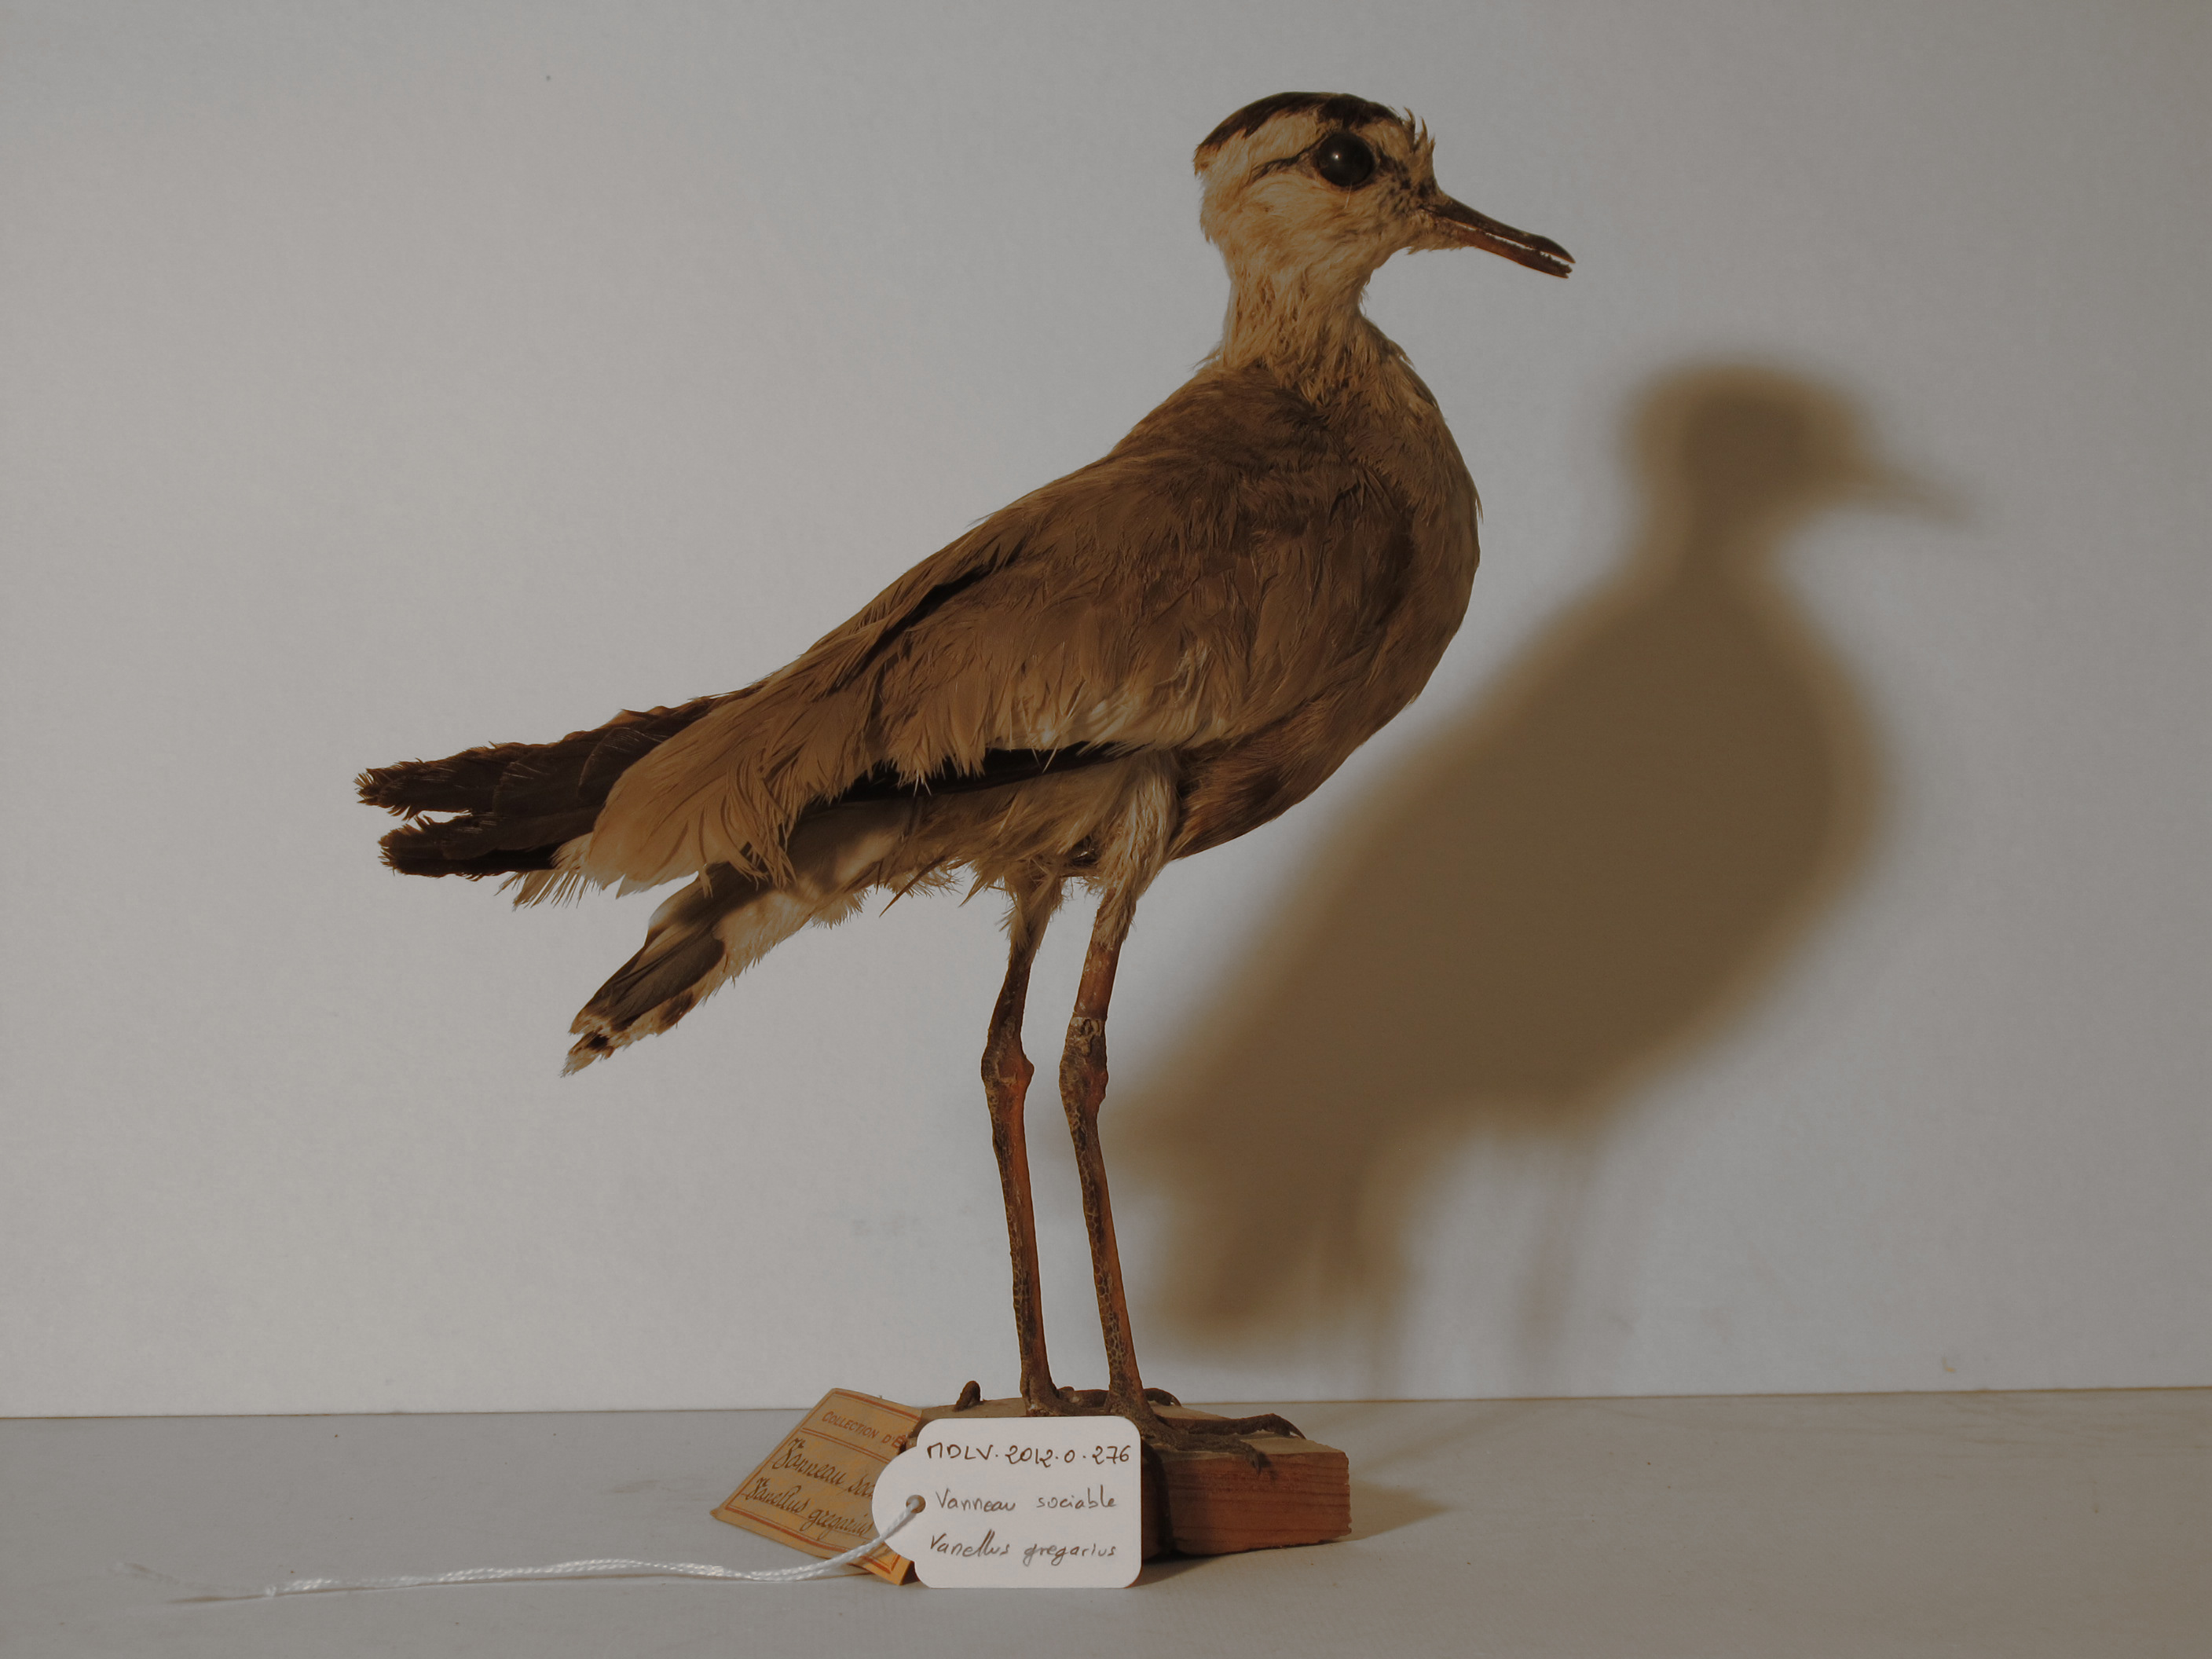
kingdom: Animalia
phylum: Chordata
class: Aves
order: Charadriiformes
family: Charadriidae
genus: Vanellus
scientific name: Vanellus gregarius
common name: Sociable Lapwing
